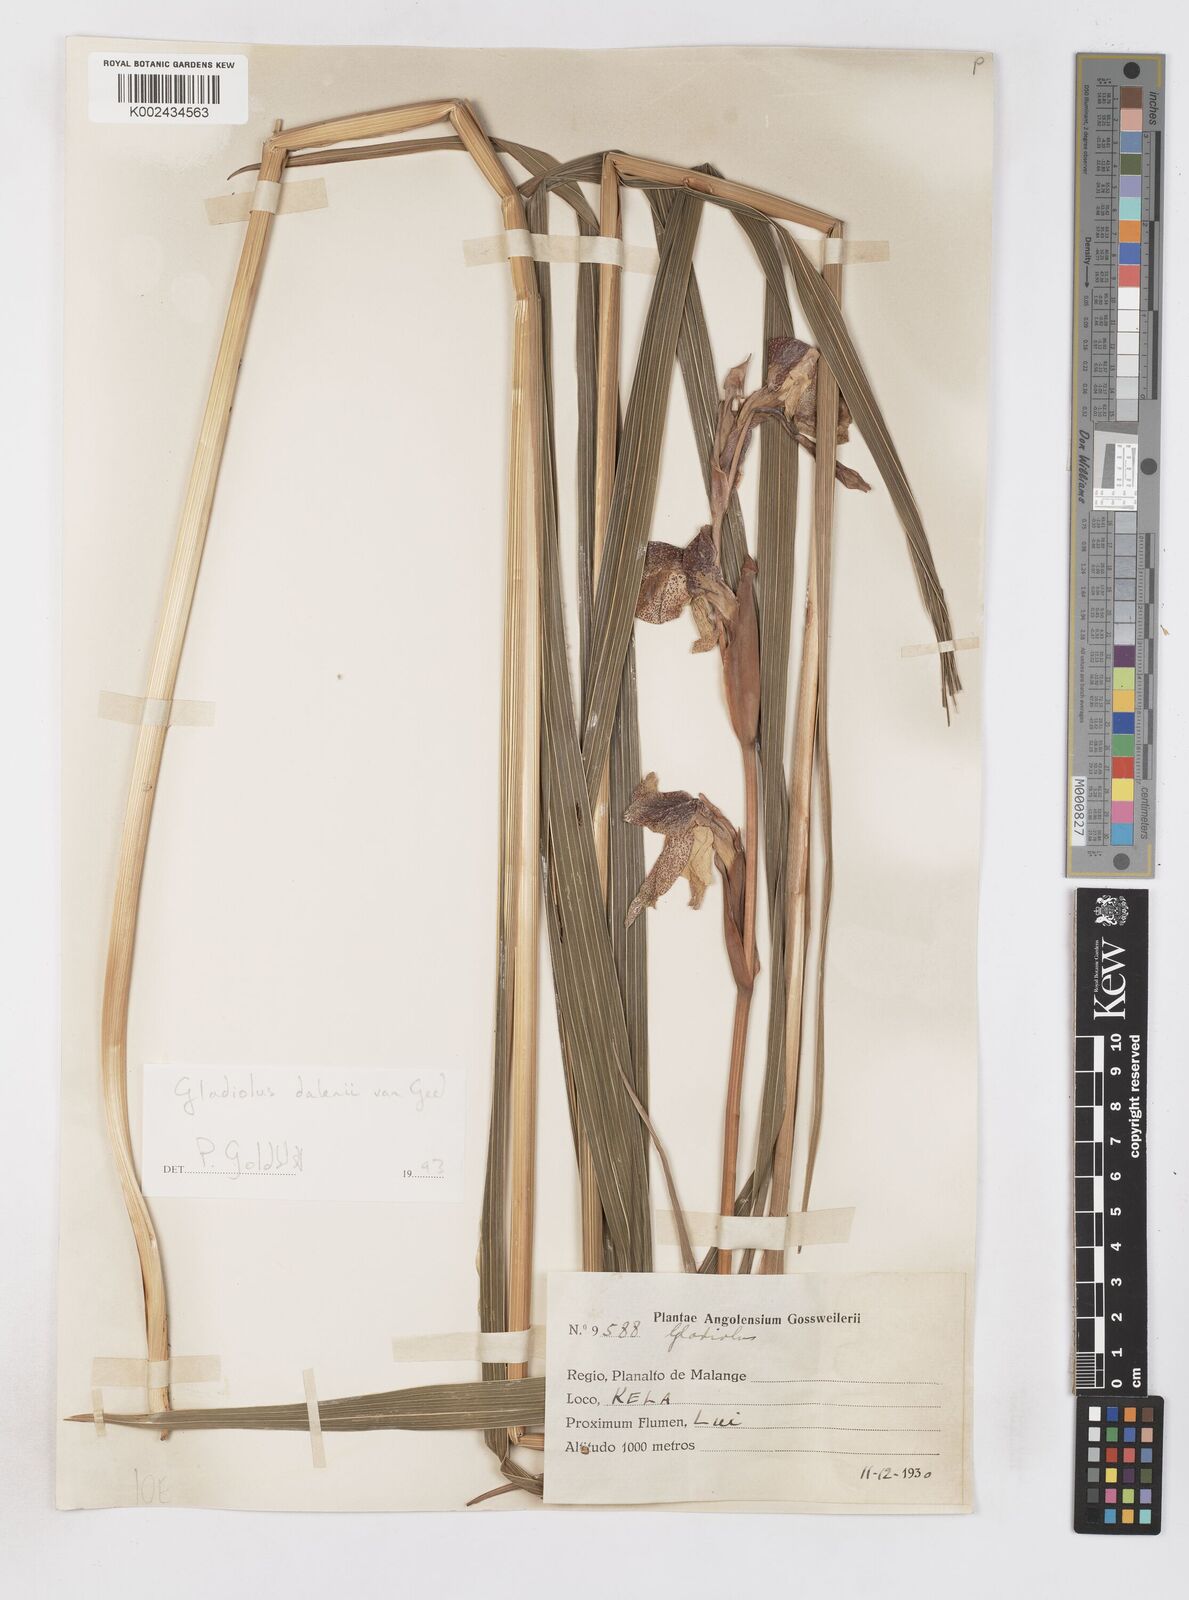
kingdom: Plantae
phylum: Tracheophyta
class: Liliopsida
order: Asparagales
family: Iridaceae
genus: Gladiolus
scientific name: Gladiolus dalenii
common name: Cornflag
